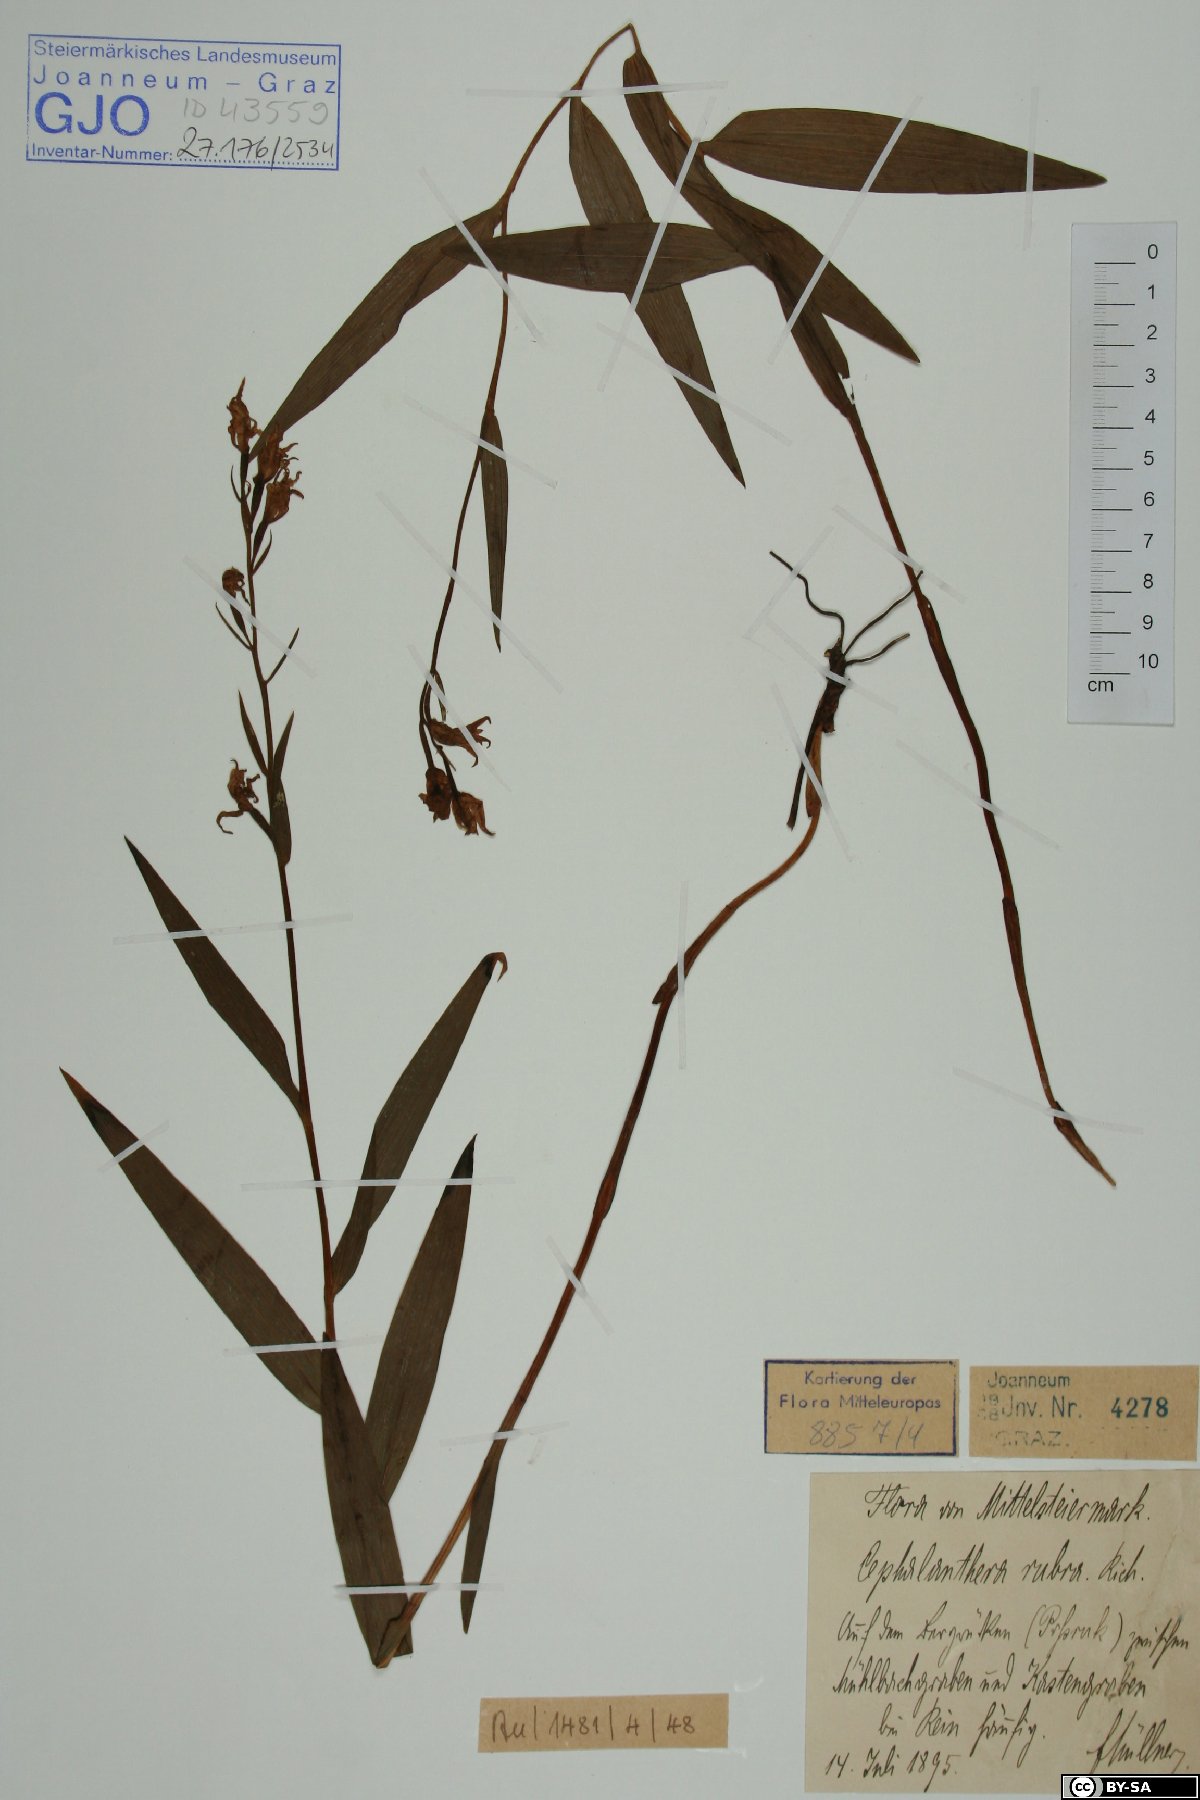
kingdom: Plantae
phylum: Tracheophyta
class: Liliopsida
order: Asparagales
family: Orchidaceae
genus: Cephalanthera
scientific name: Cephalanthera rubra
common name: Red helleborine
